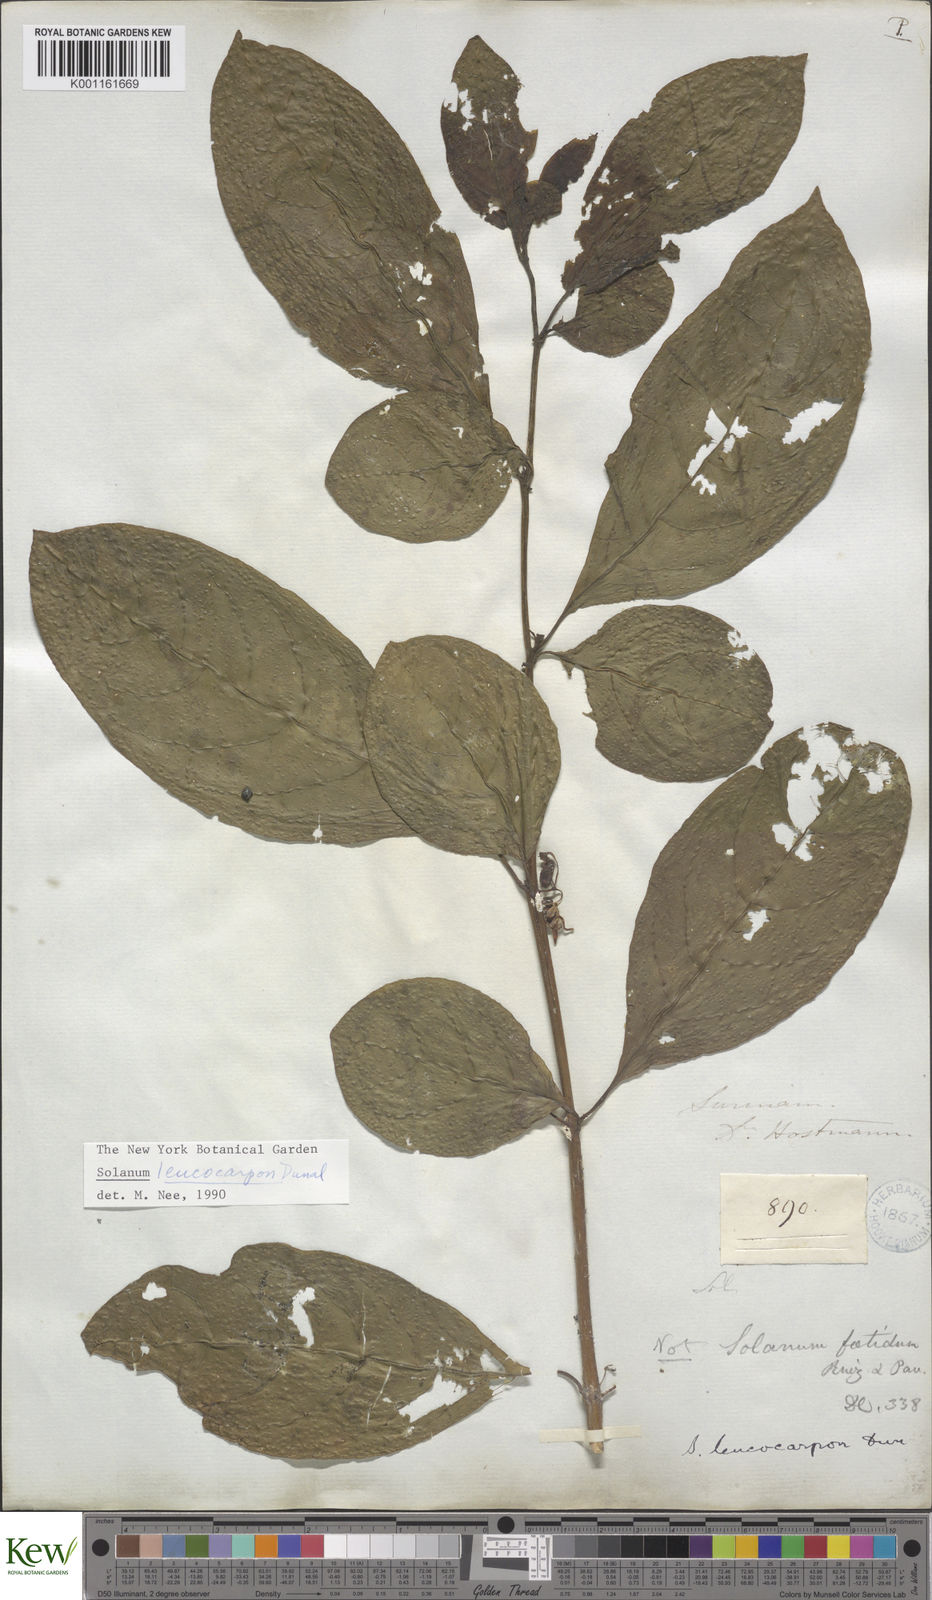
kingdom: Plantae
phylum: Tracheophyta
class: Magnoliopsida
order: Solanales
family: Solanaceae
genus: Solanum
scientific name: Solanum leucocarpon
